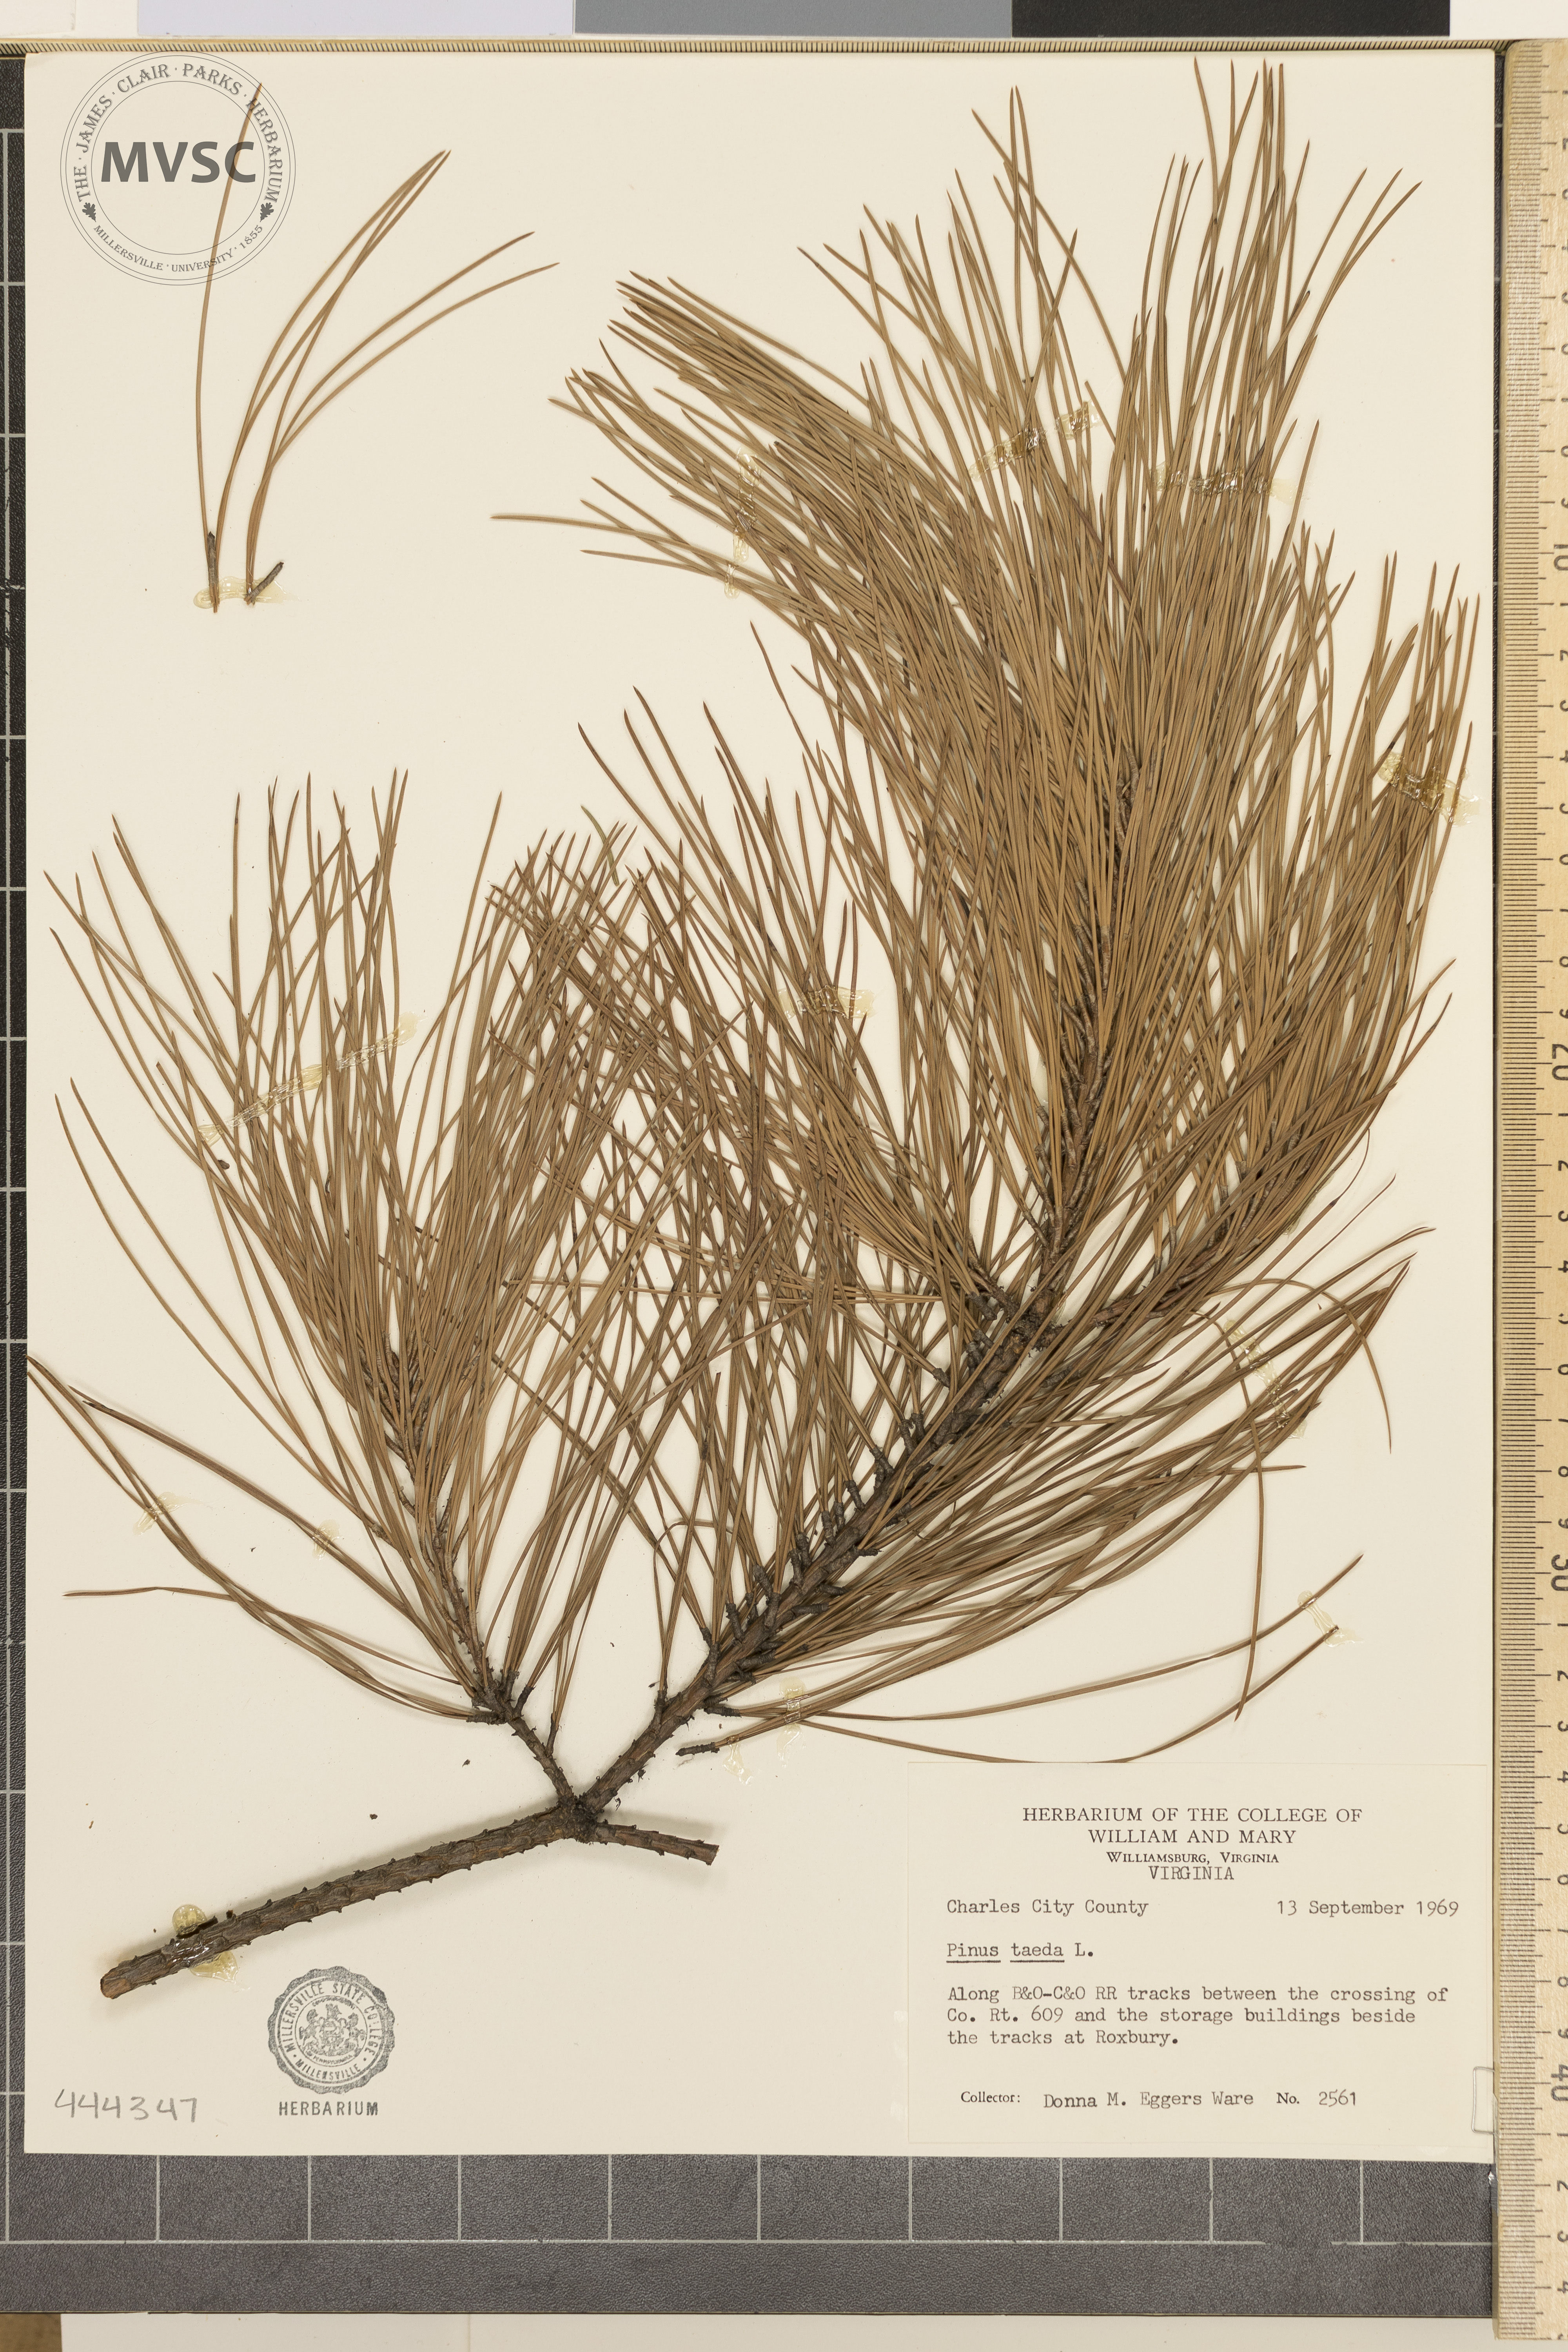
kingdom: Plantae
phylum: Tracheophyta
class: Pinopsida
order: Pinales
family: Pinaceae
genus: Pinus
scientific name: Pinus
